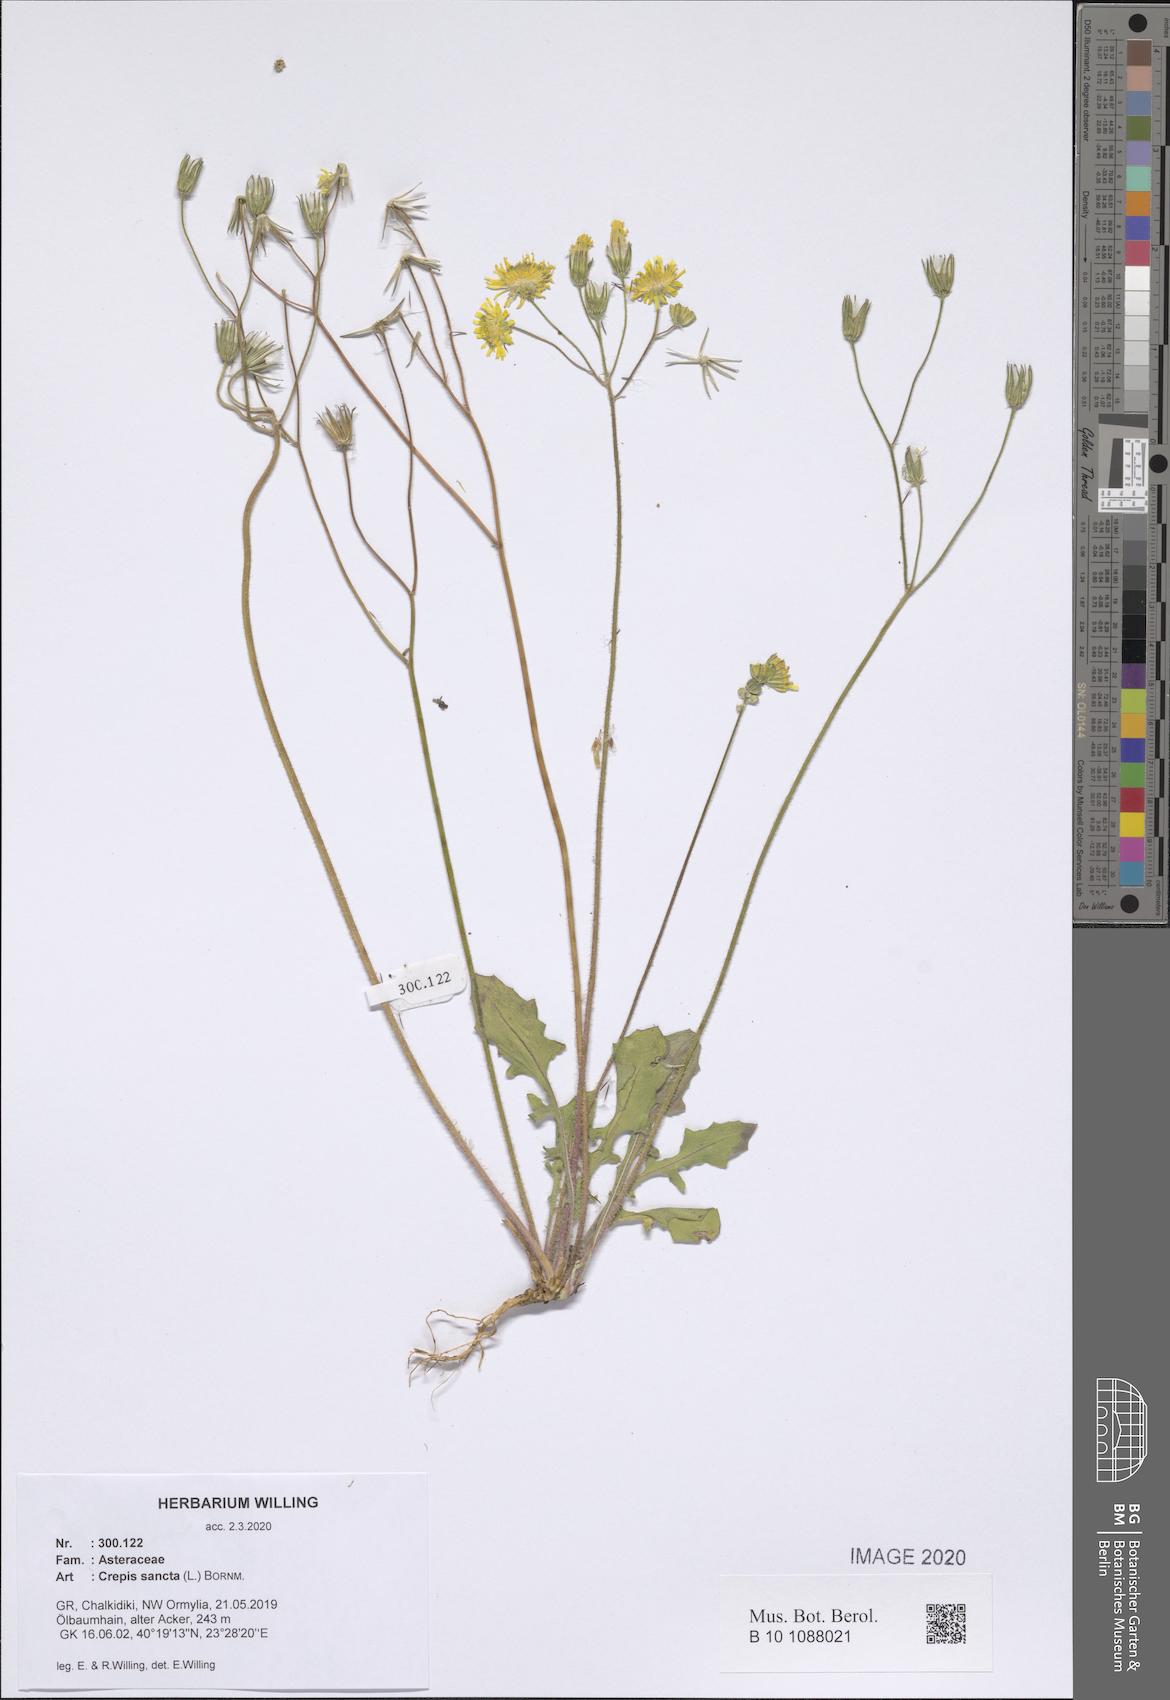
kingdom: Plantae
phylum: Tracheophyta
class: Magnoliopsida
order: Asterales
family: Asteraceae
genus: Crepis
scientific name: Crepis sancta
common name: Hawk's-beard
